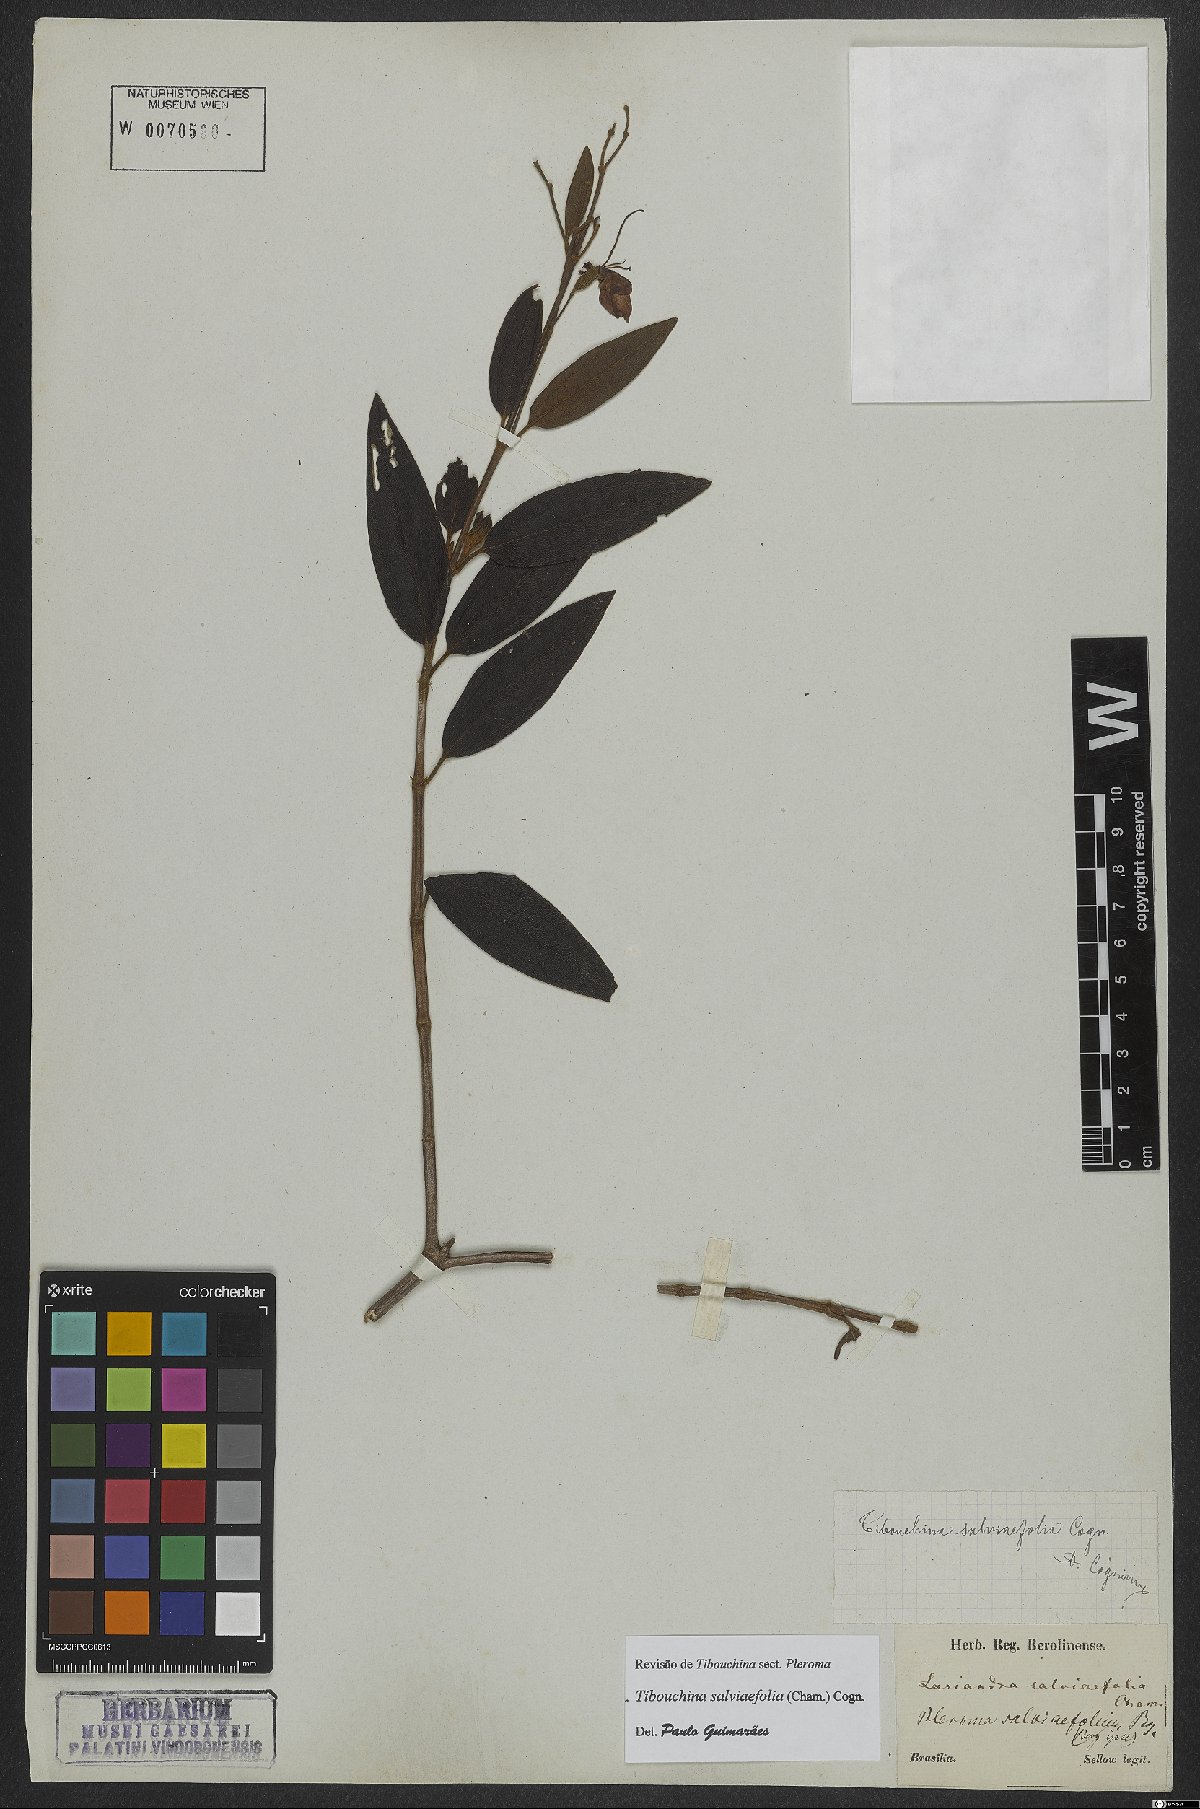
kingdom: Plantae
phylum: Tracheophyta
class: Magnoliopsida
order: Myrtales
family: Melastomataceae
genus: Pleroma
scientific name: Pleroma salviifolium
